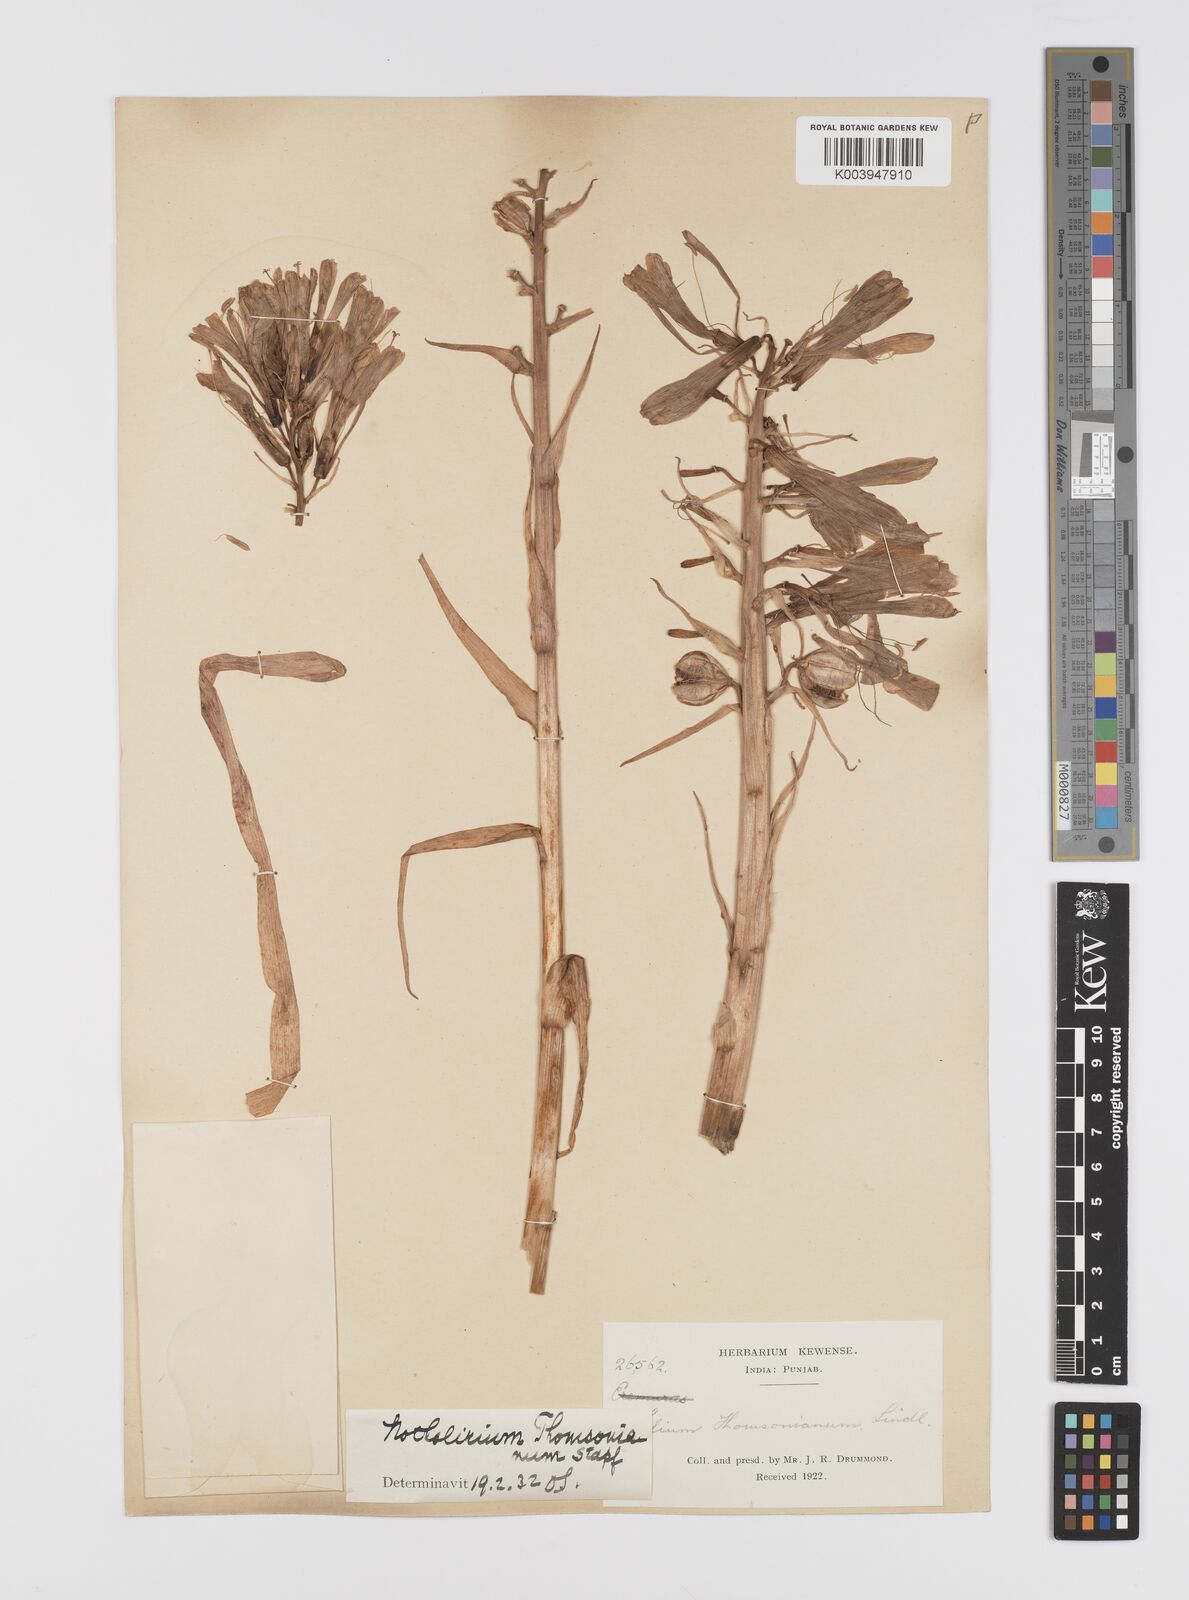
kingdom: Plantae
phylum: Tracheophyta
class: Liliopsida
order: Liliales
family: Liliaceae
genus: Notholirion
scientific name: Notholirion thomsonianum
